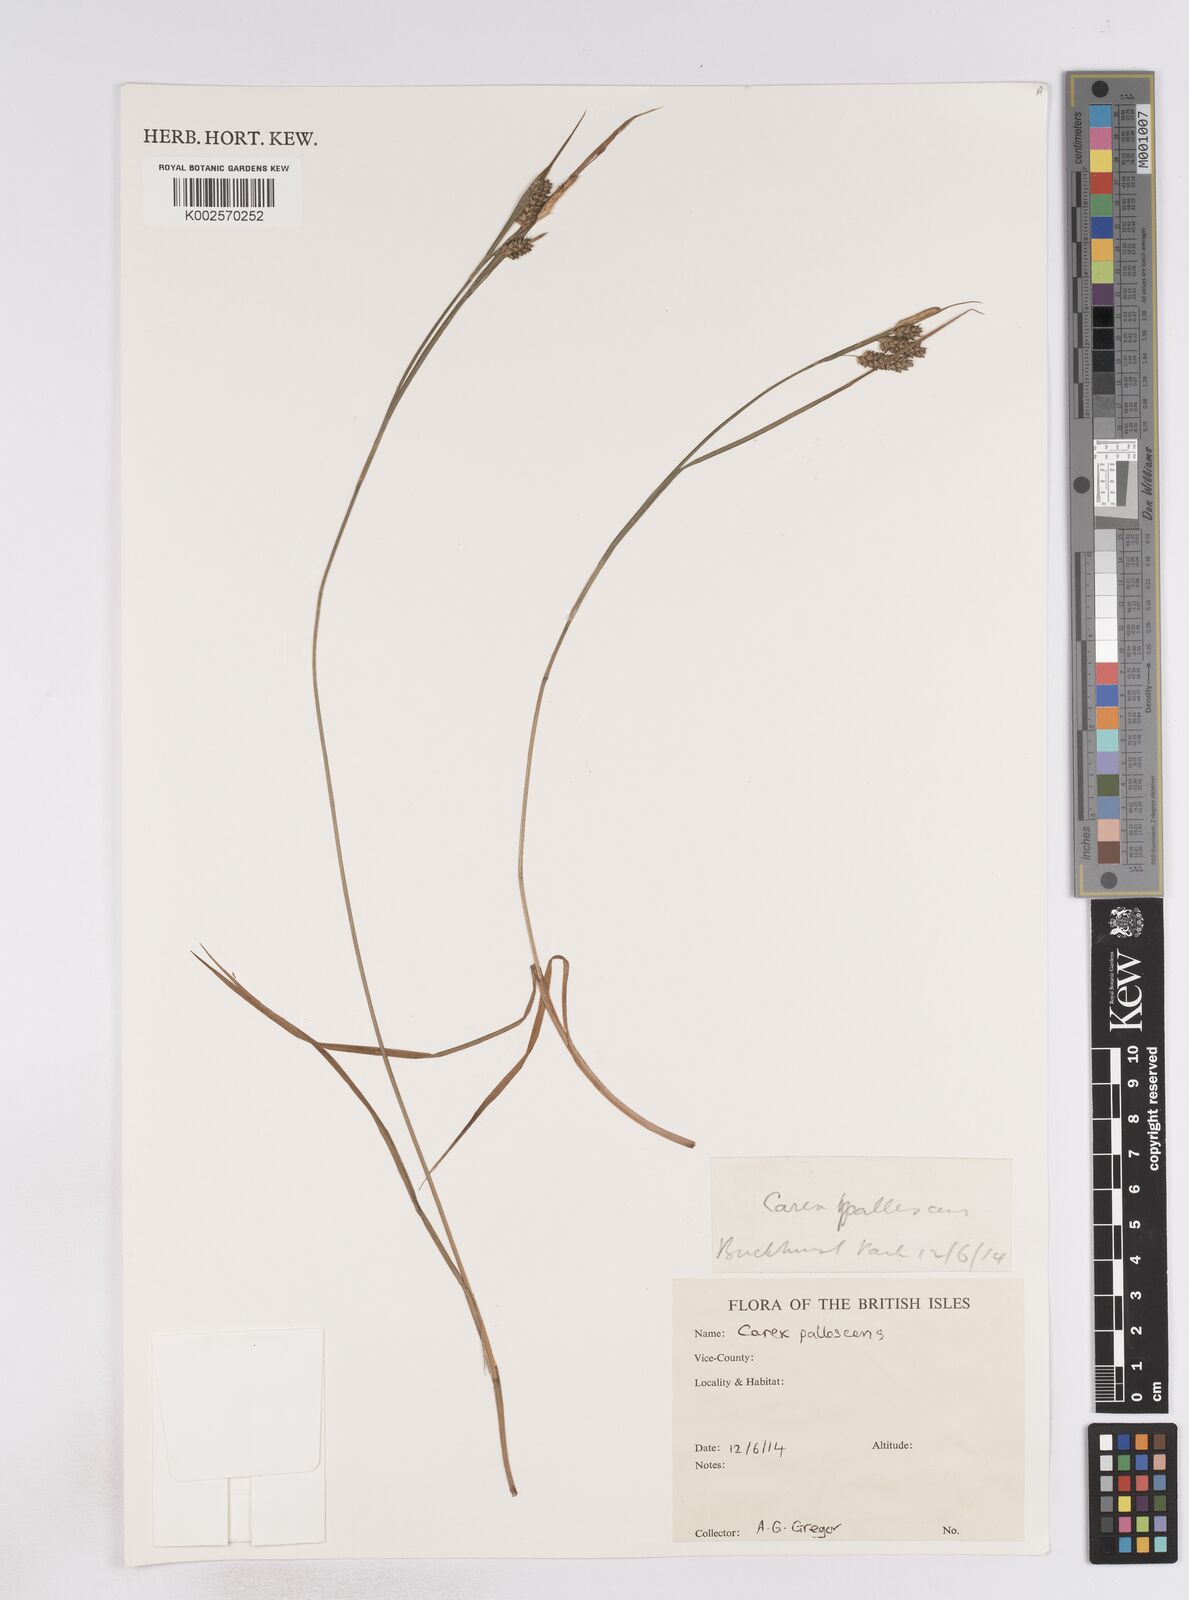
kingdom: Plantae
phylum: Tracheophyta
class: Liliopsida
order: Poales
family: Cyperaceae
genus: Carex
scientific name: Carex pallescens
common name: Pale sedge
